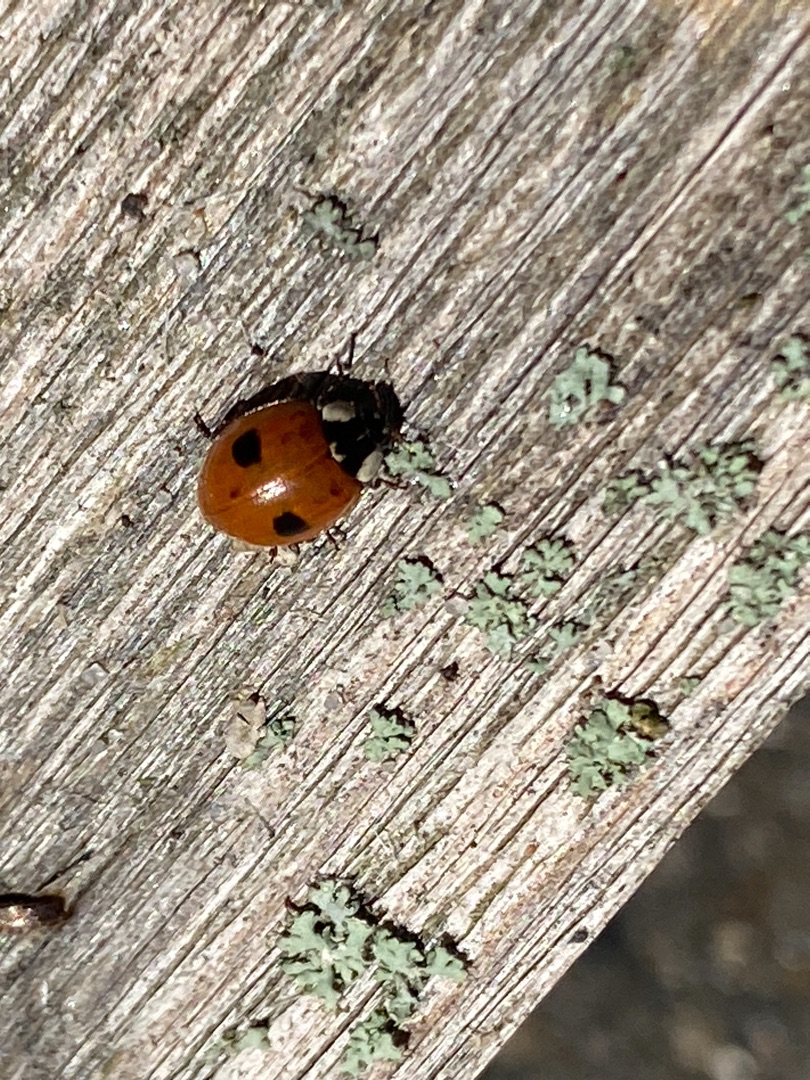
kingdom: Animalia
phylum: Arthropoda
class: Insecta
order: Coleoptera
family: Coccinellidae
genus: Adalia
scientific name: Adalia bipunctata
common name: Toplettet mariehøne
